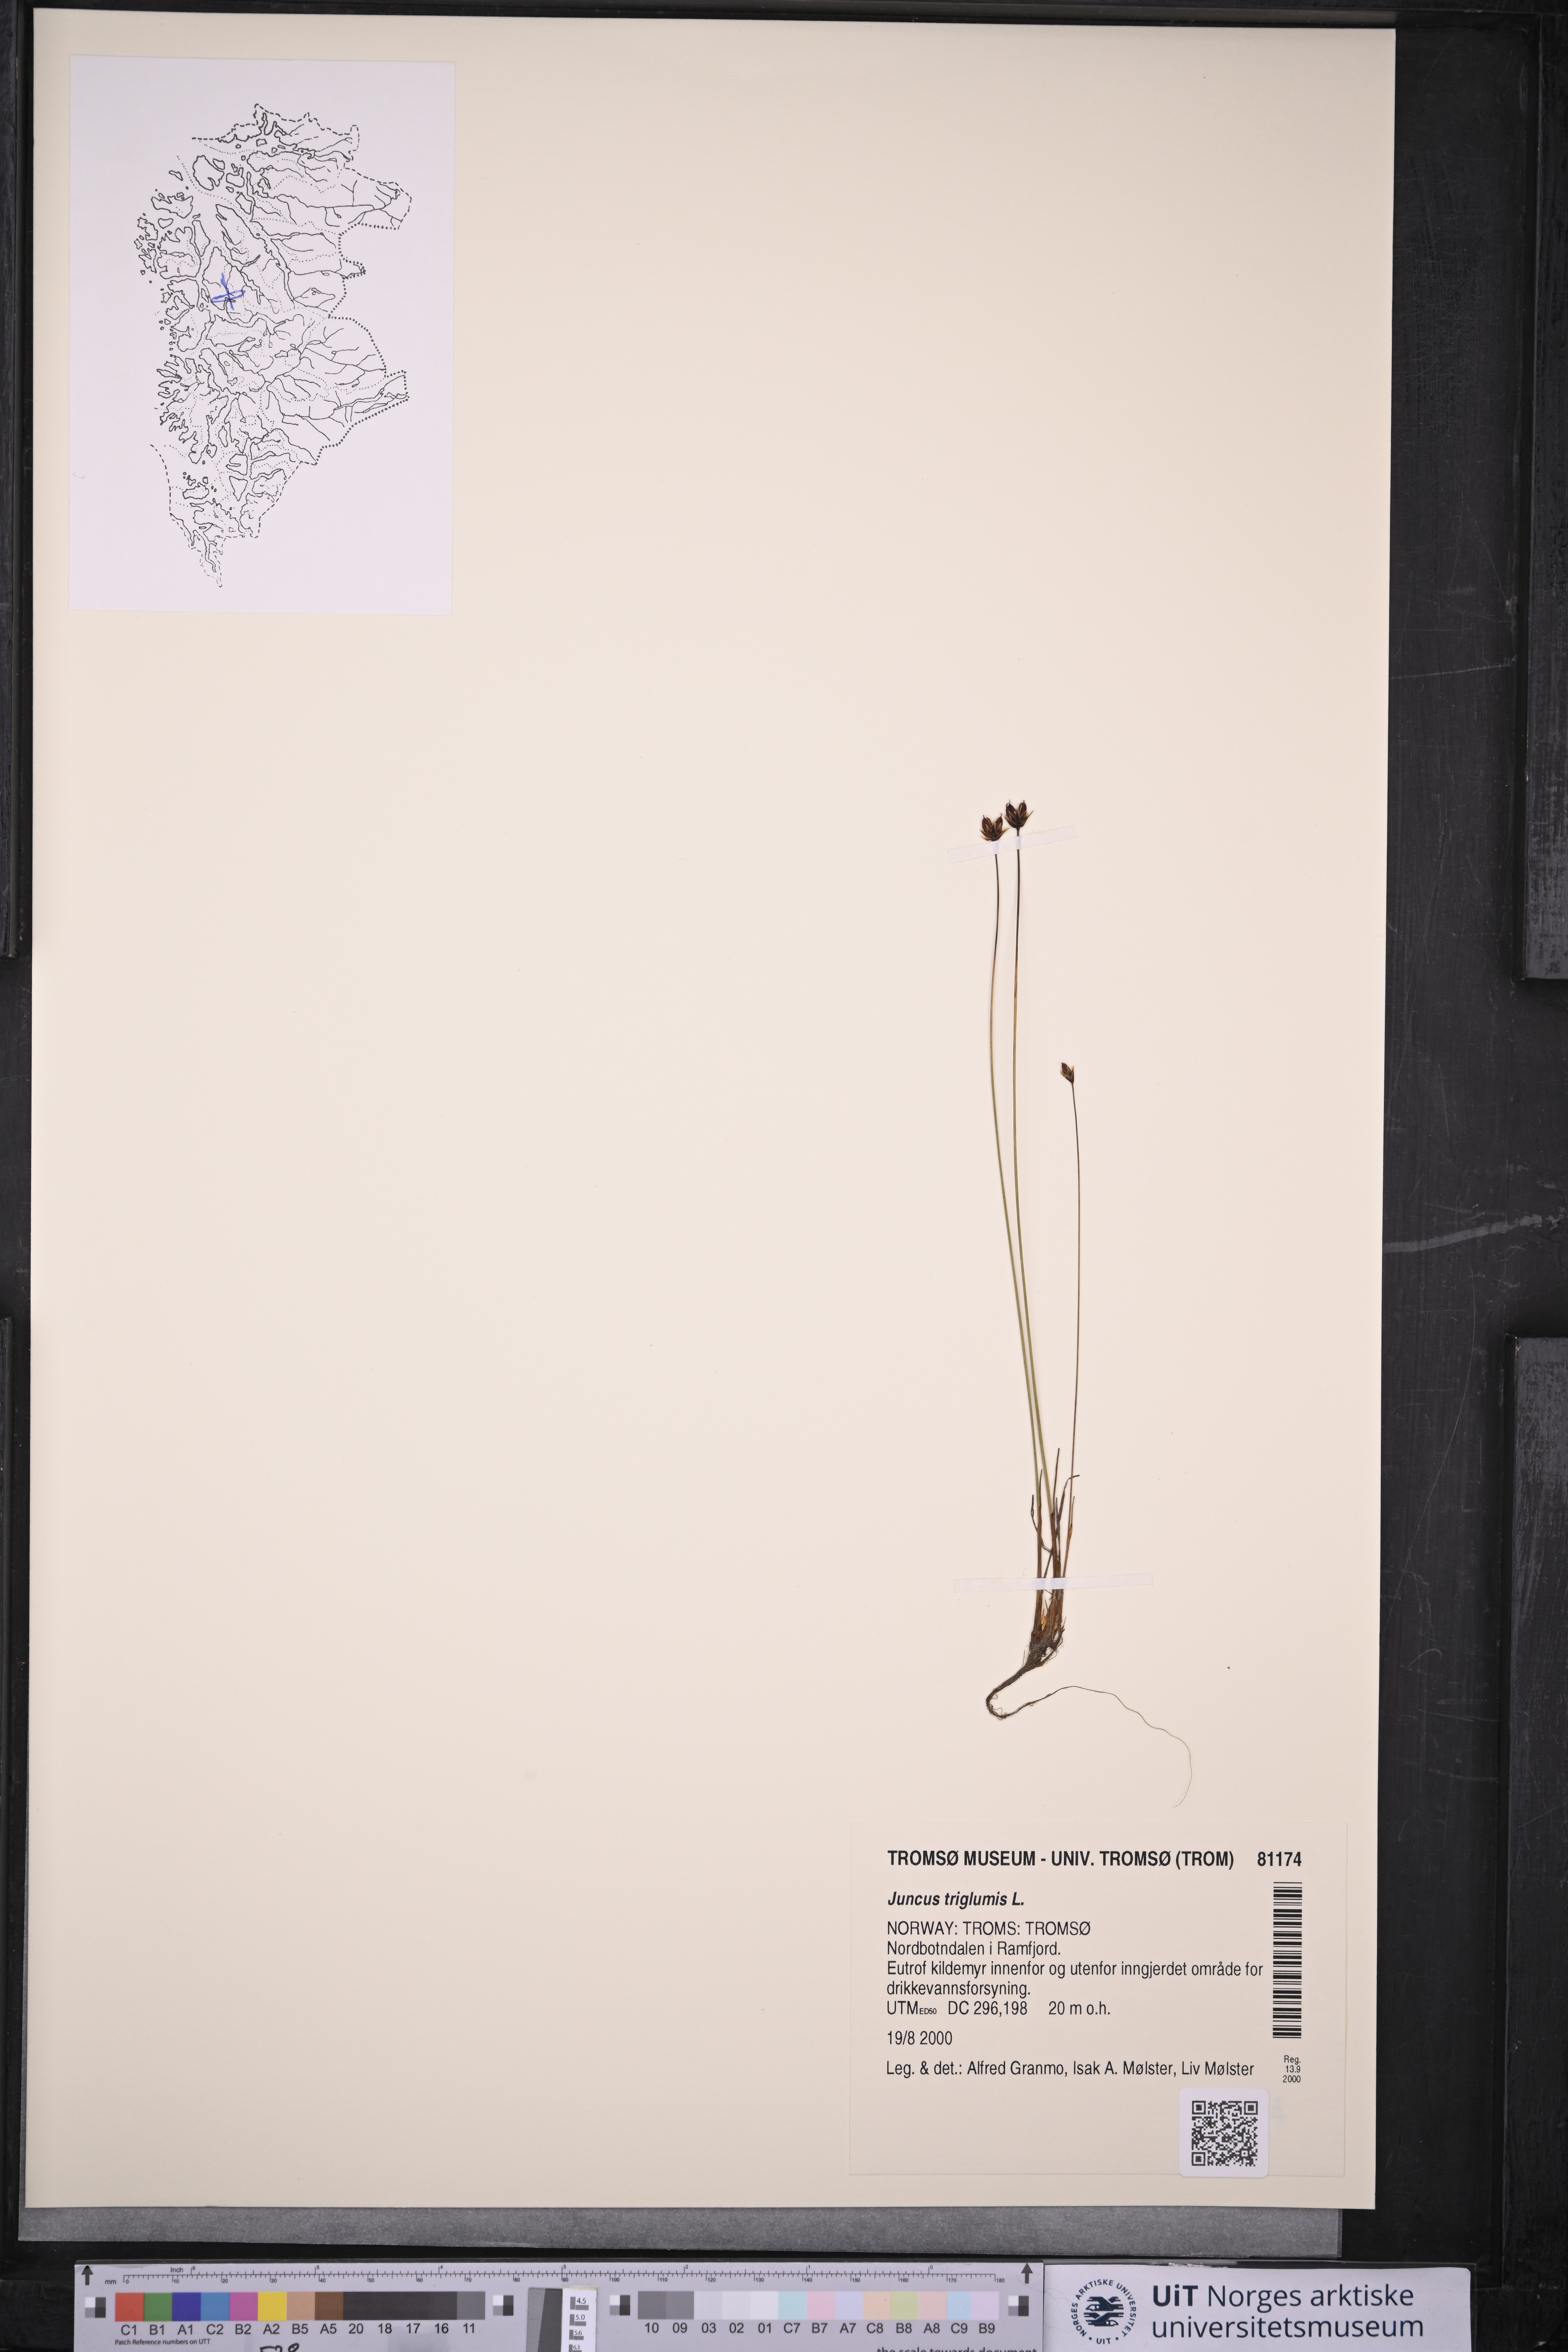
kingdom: Plantae
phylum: Tracheophyta
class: Liliopsida
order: Poales
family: Juncaceae
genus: Juncus
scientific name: Juncus triglumis
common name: Three-flowered rush
